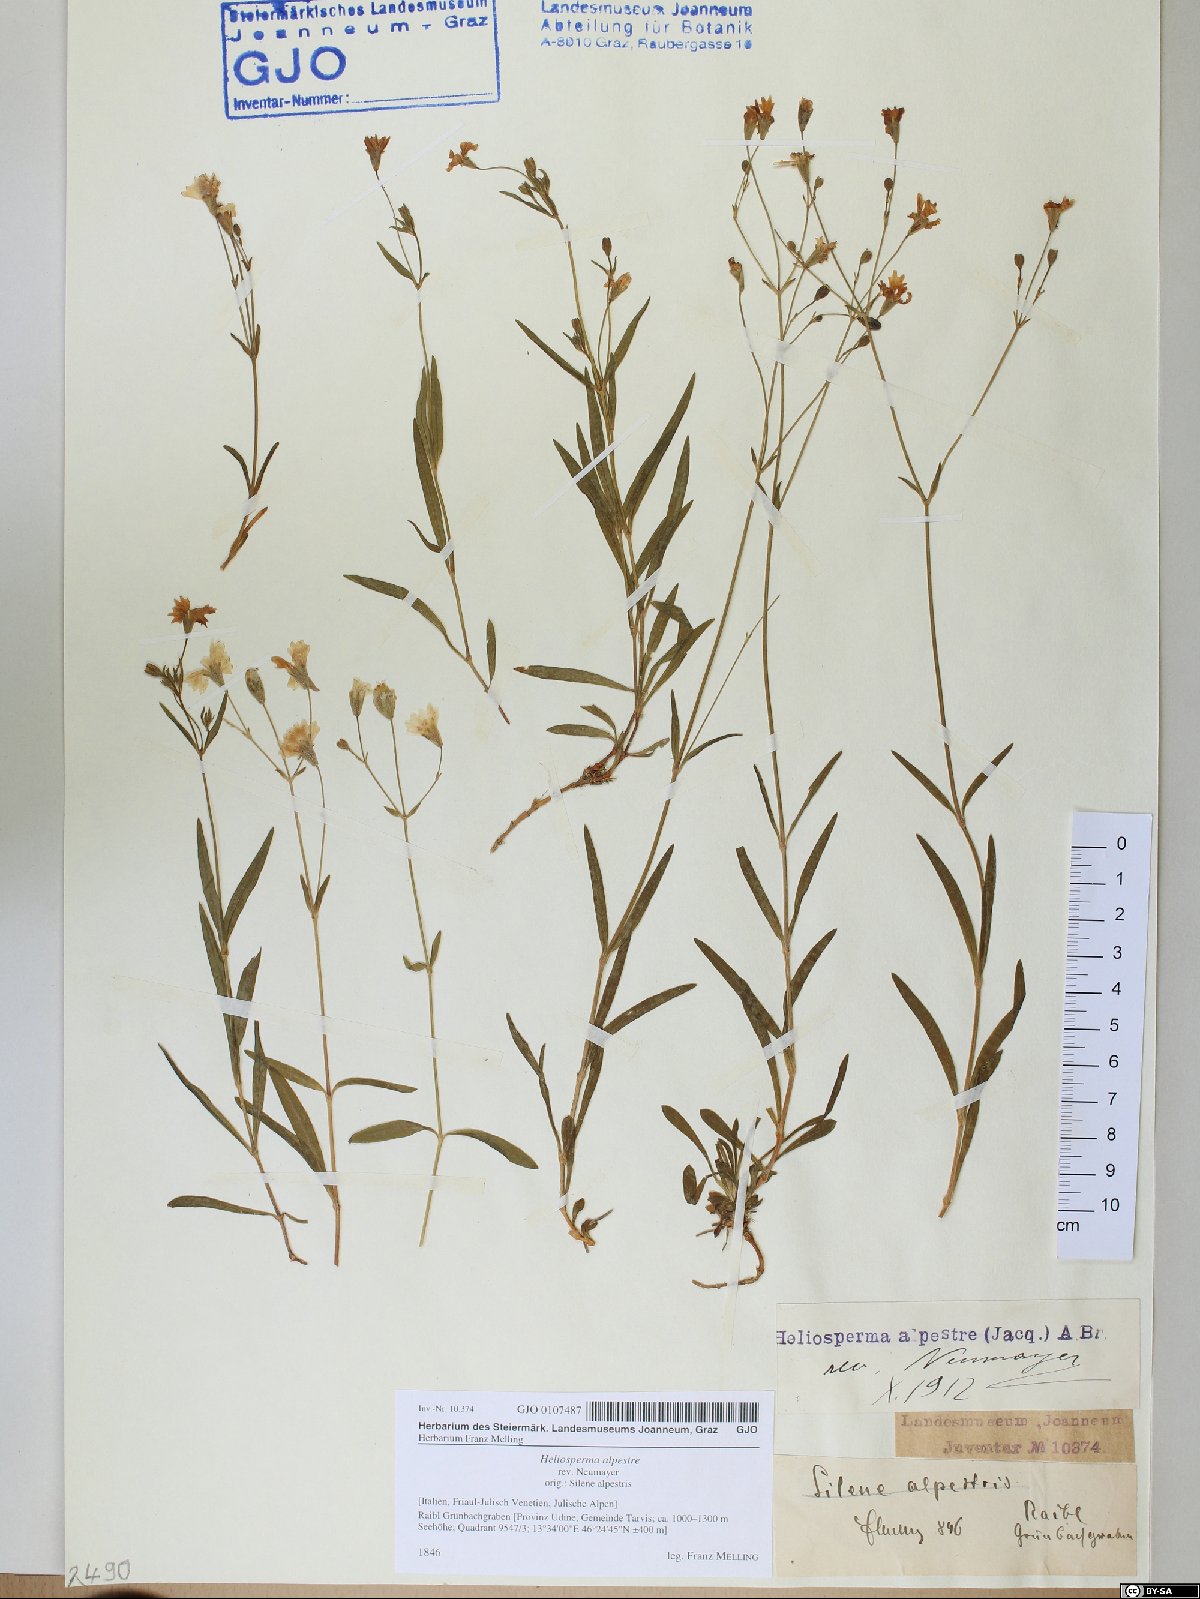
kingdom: Plantae
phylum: Tracheophyta
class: Magnoliopsida
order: Caryophyllales
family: Caryophyllaceae
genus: Heliosperma
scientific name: Heliosperma alpestre
